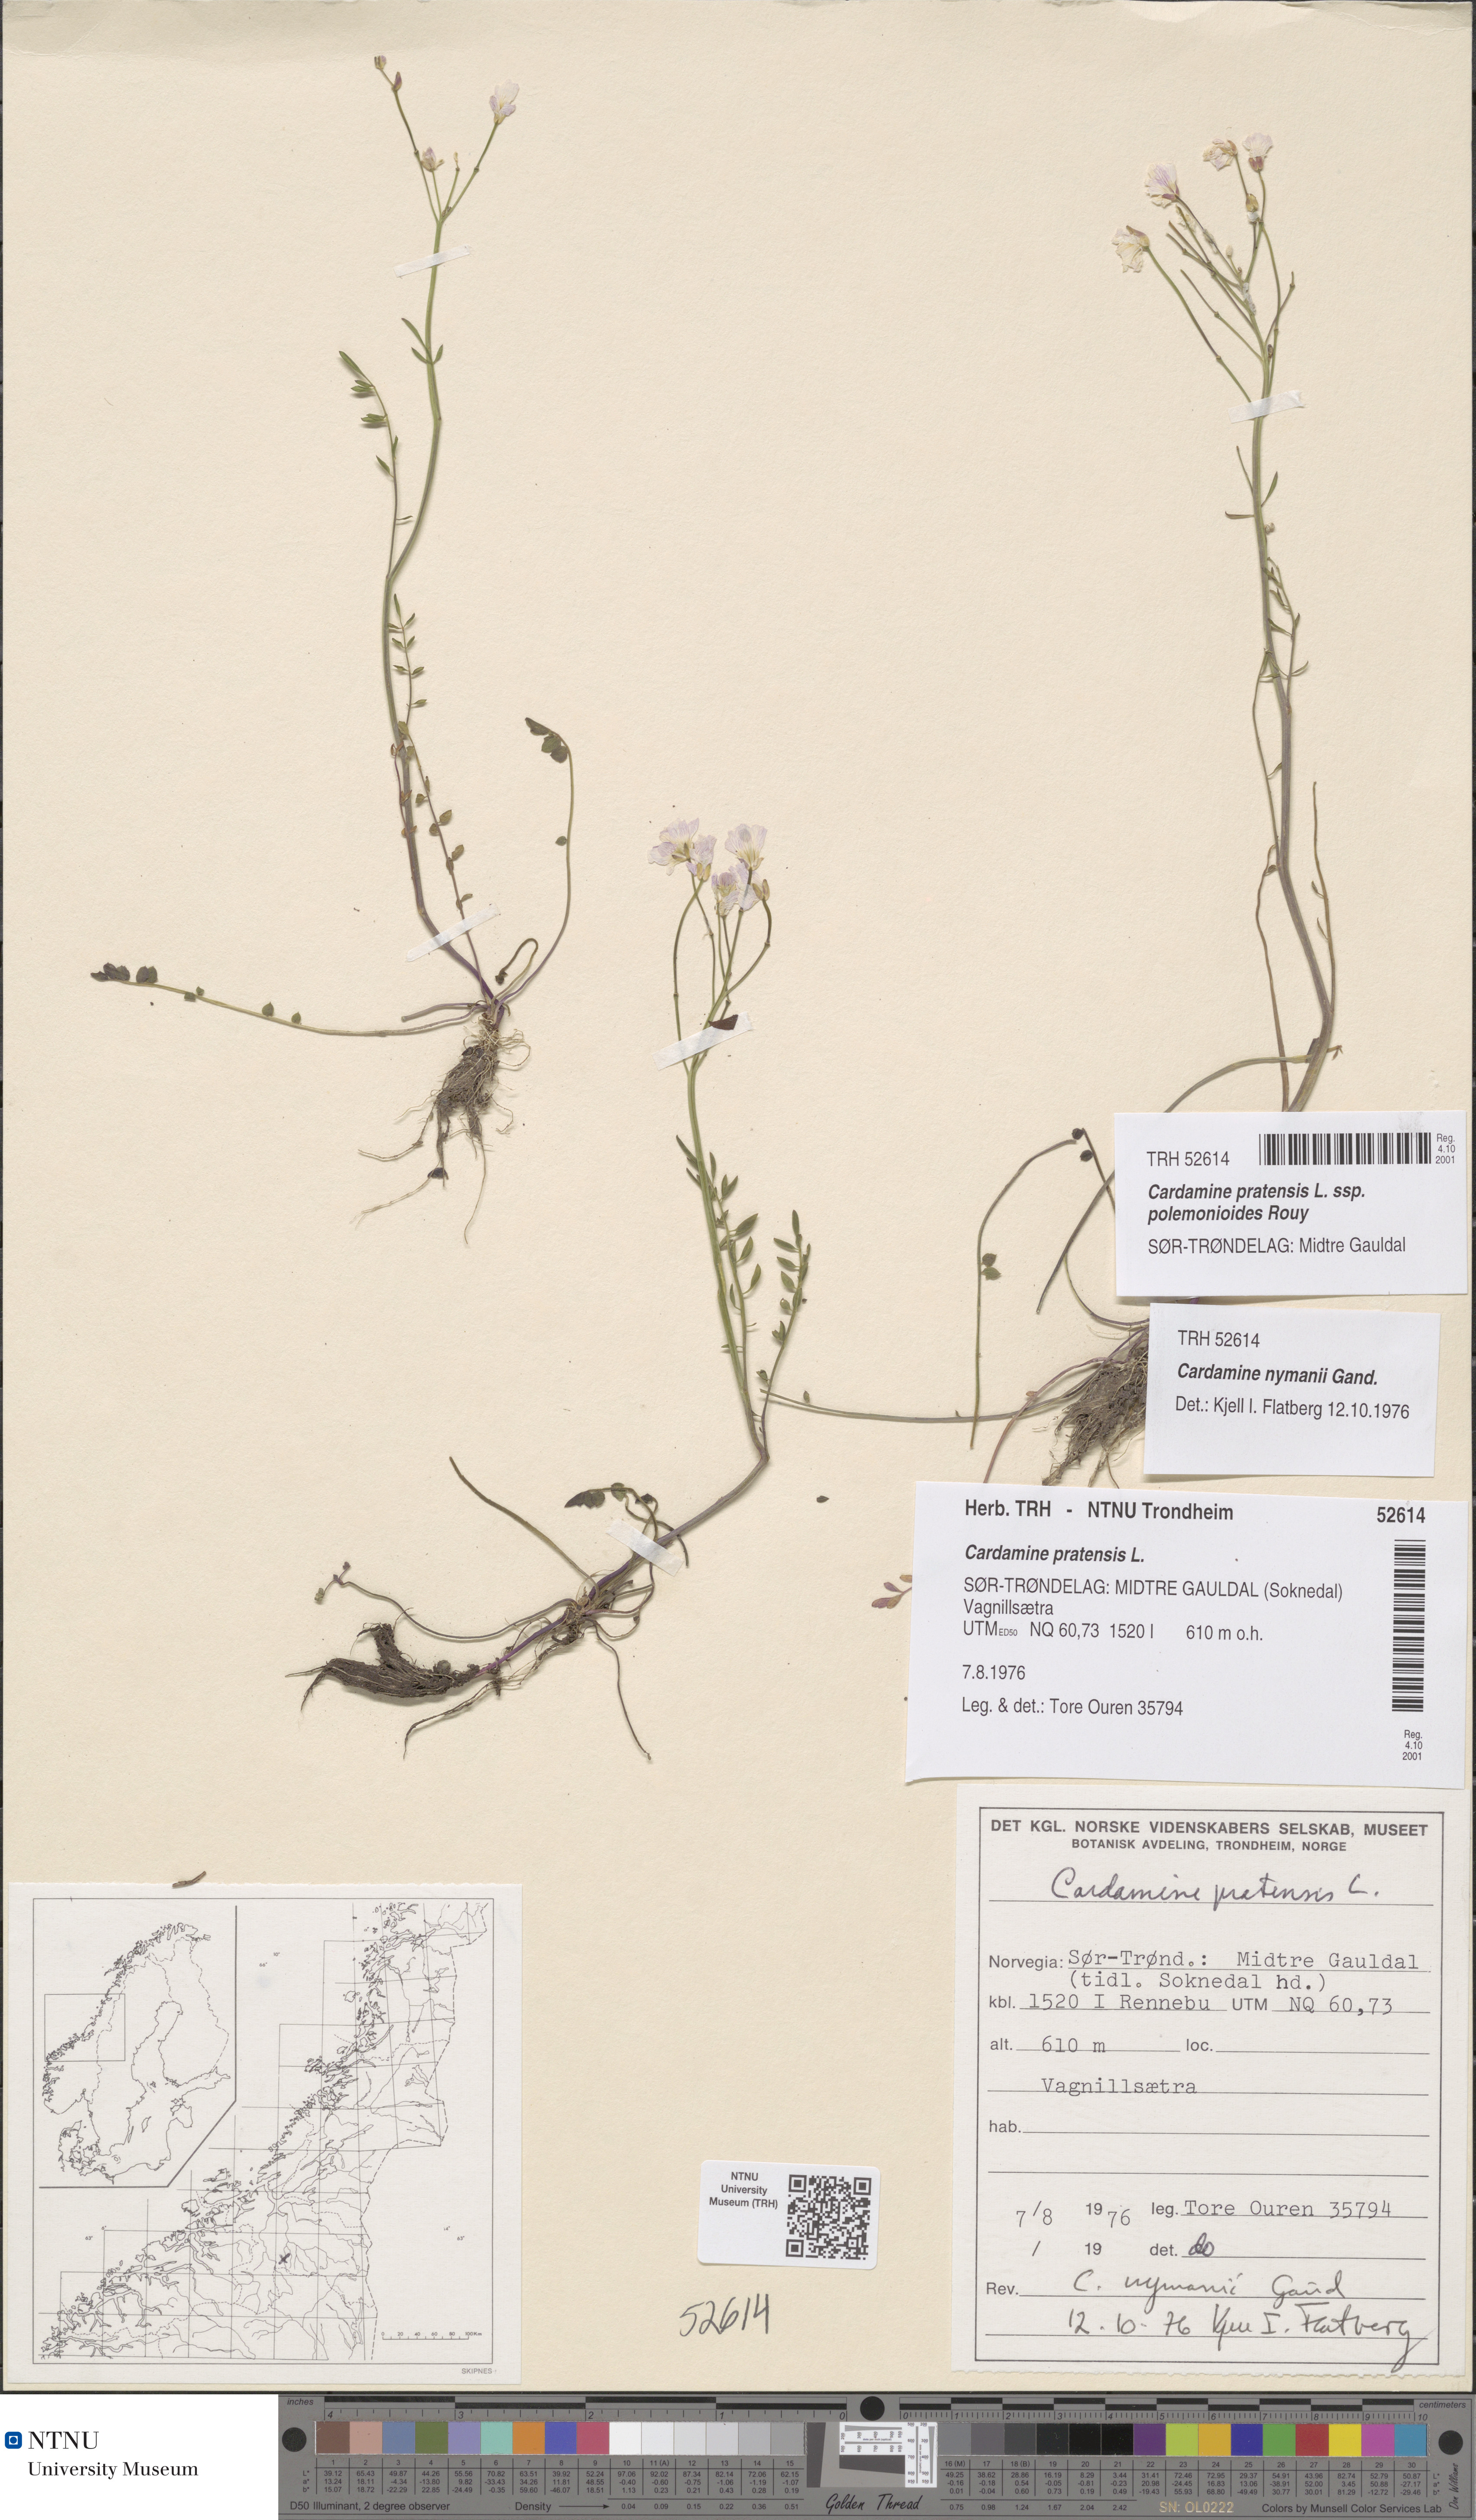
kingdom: Plantae
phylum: Tracheophyta
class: Magnoliopsida
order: Brassicales
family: Brassicaceae
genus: Cardamine
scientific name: Cardamine nymanii
